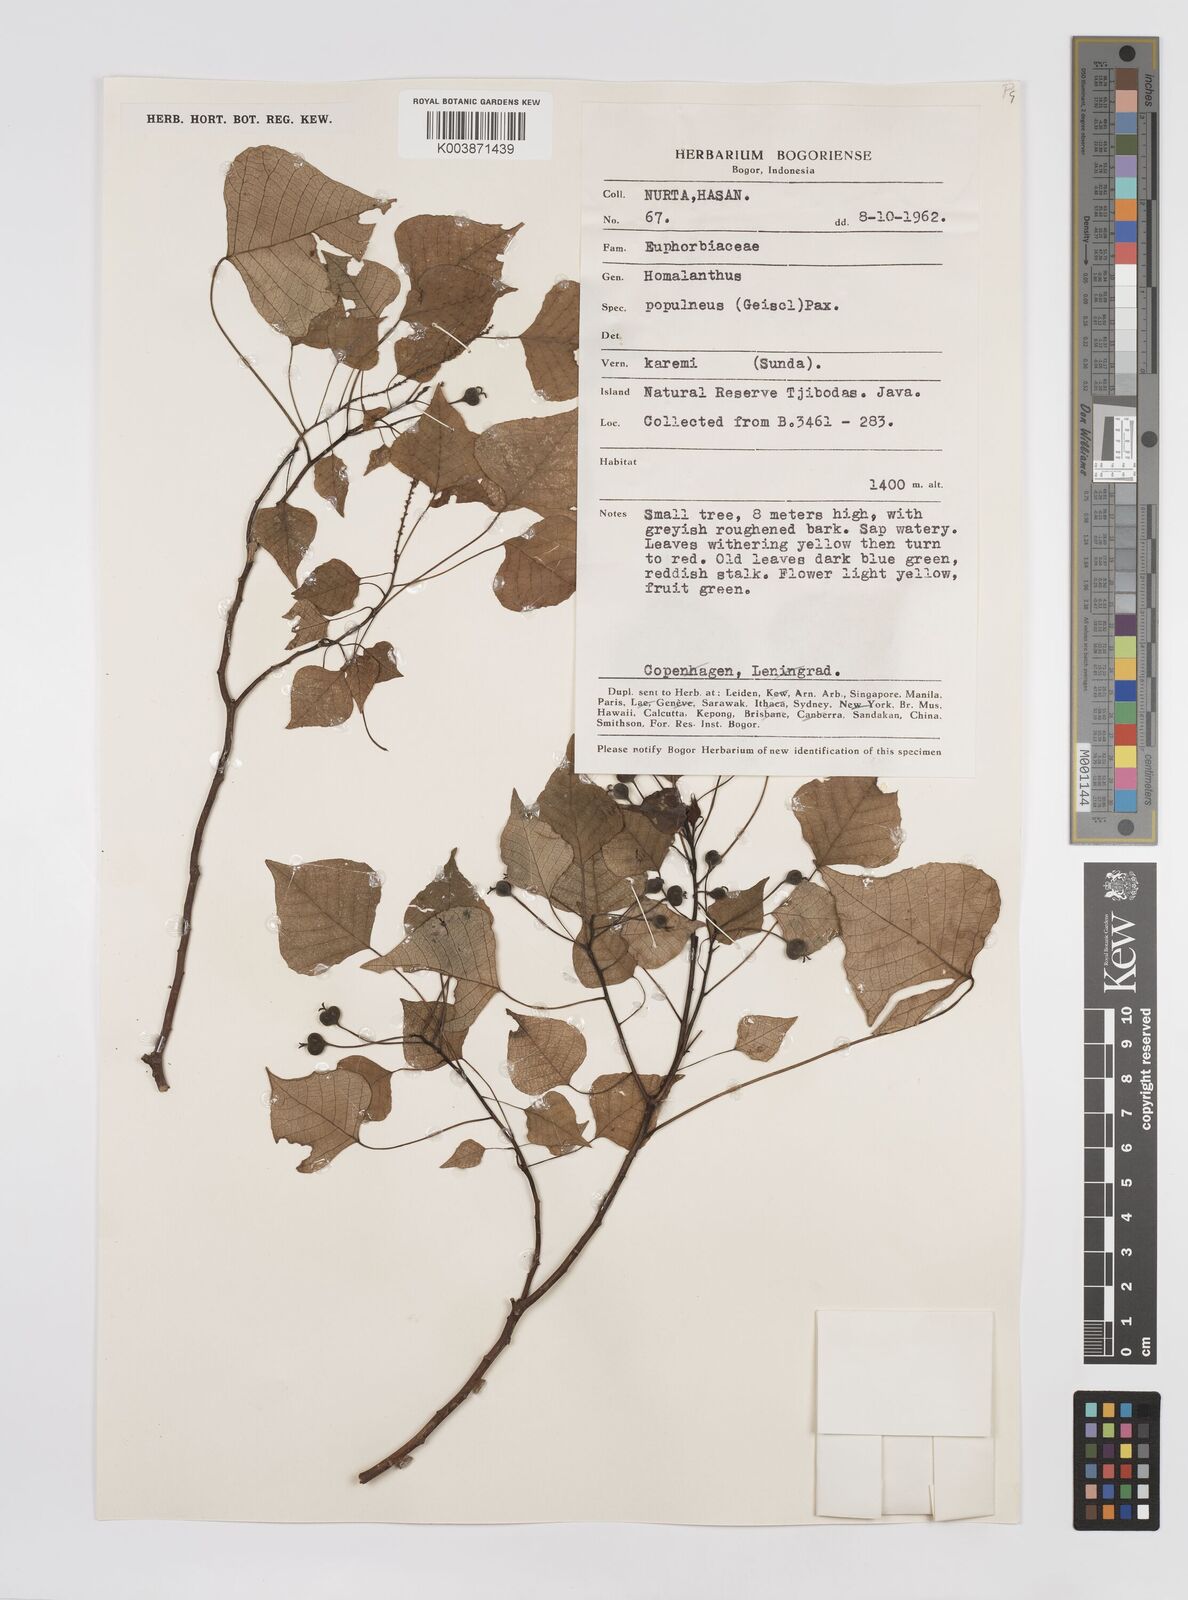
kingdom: Plantae
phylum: Tracheophyta
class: Magnoliopsida
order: Malpighiales
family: Euphorbiaceae
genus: Homalanthus
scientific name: Homalanthus populneus
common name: Spurge
